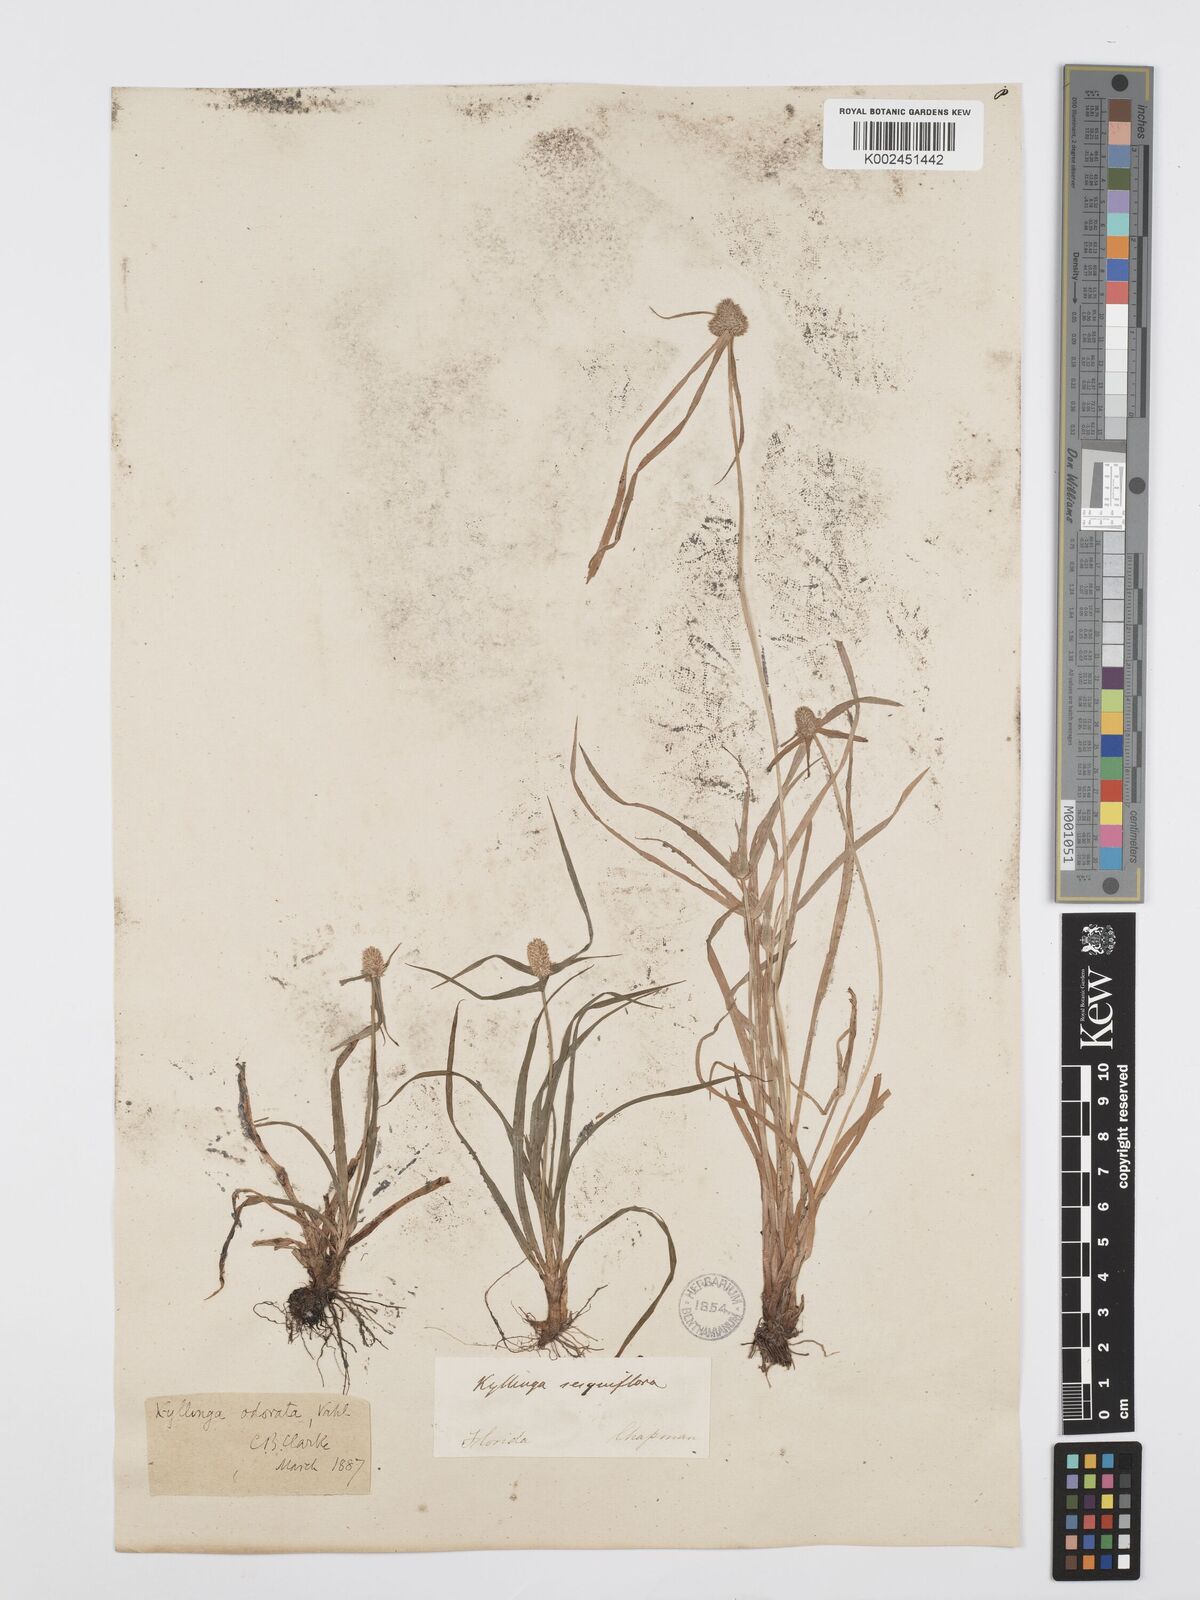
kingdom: Plantae
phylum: Tracheophyta
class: Liliopsida
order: Poales
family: Cyperaceae
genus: Cyperus
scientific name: Cyperus
